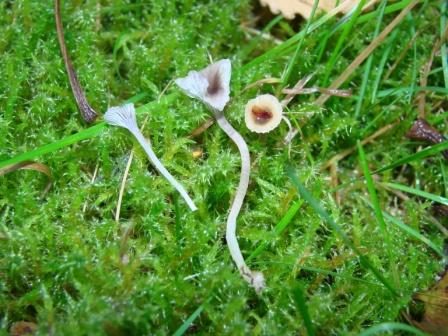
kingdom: Fungi
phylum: Basidiomycota
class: Agaricomycetes
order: Hymenochaetales
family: Rickenellaceae
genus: Rickenella
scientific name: Rickenella swartzii
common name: finstokket mosnavlehat
